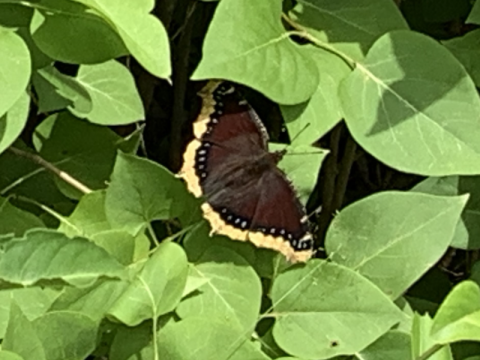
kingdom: Animalia
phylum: Arthropoda
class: Insecta
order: Lepidoptera
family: Nymphalidae
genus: Nymphalis
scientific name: Nymphalis antiopa
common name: Mourning Cloak
